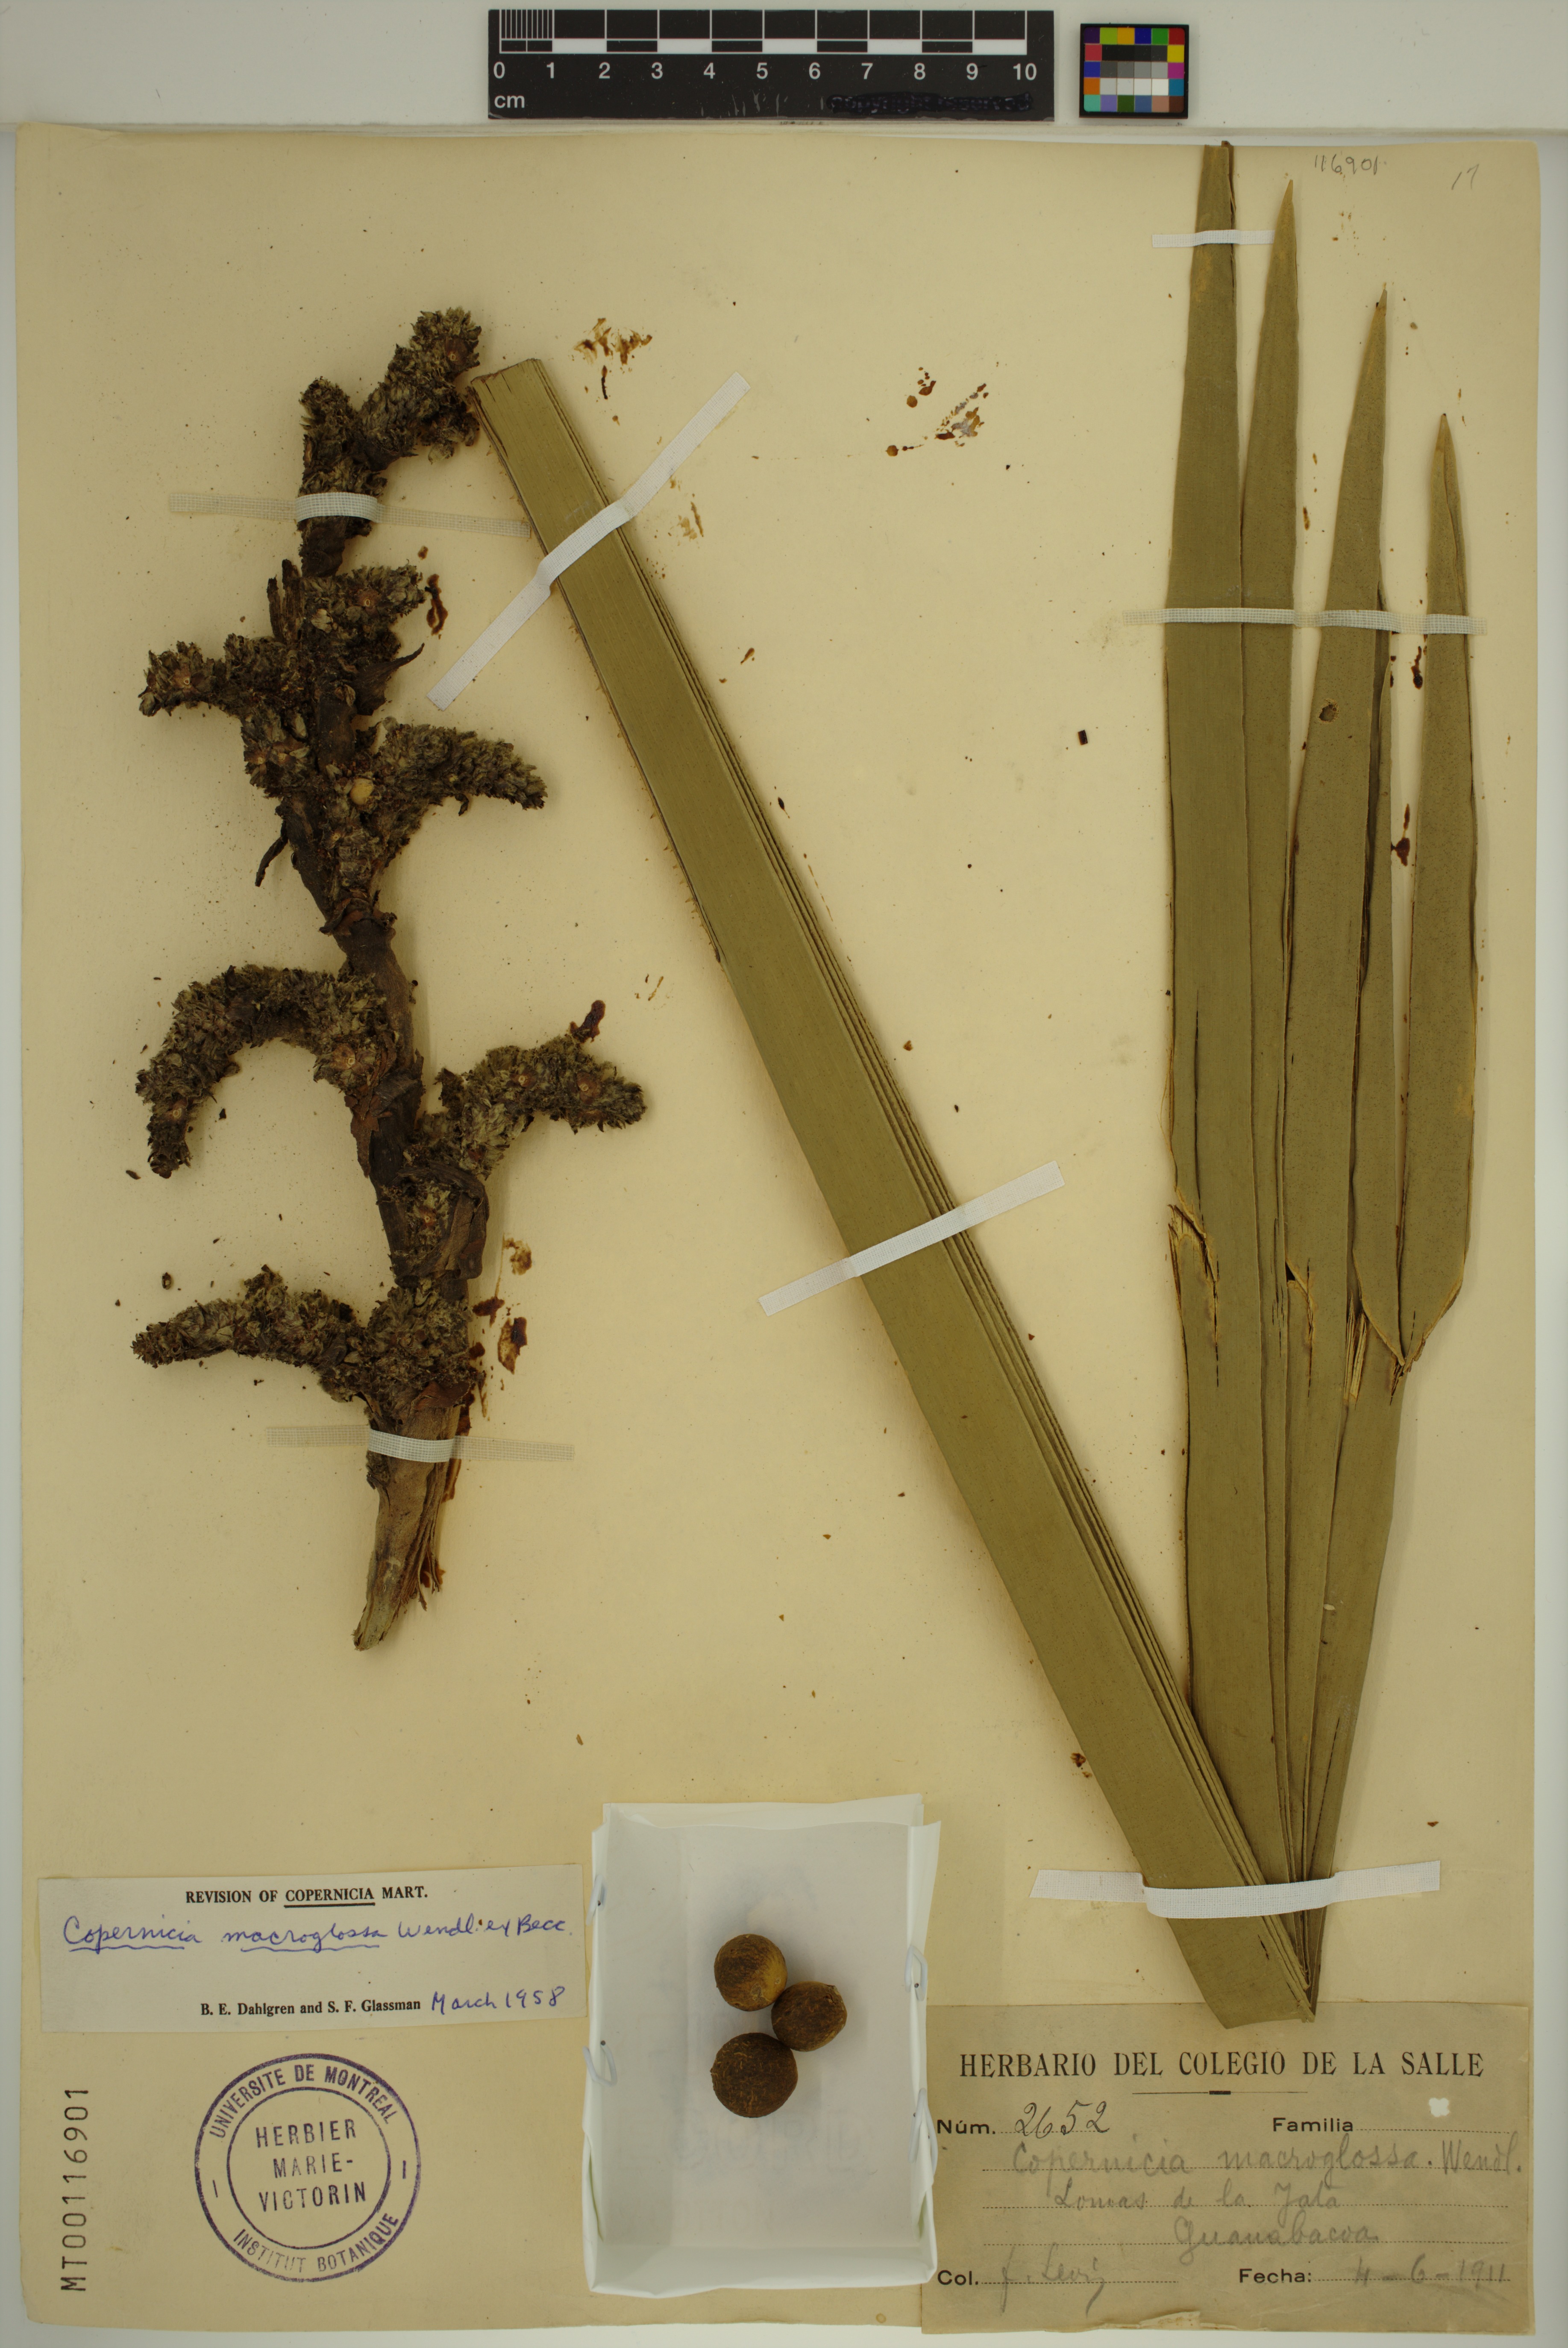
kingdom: Plantae
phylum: Tracheophyta
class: Liliopsida
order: Arecales
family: Arecaceae
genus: Copernicia
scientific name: Copernicia macroglossa
